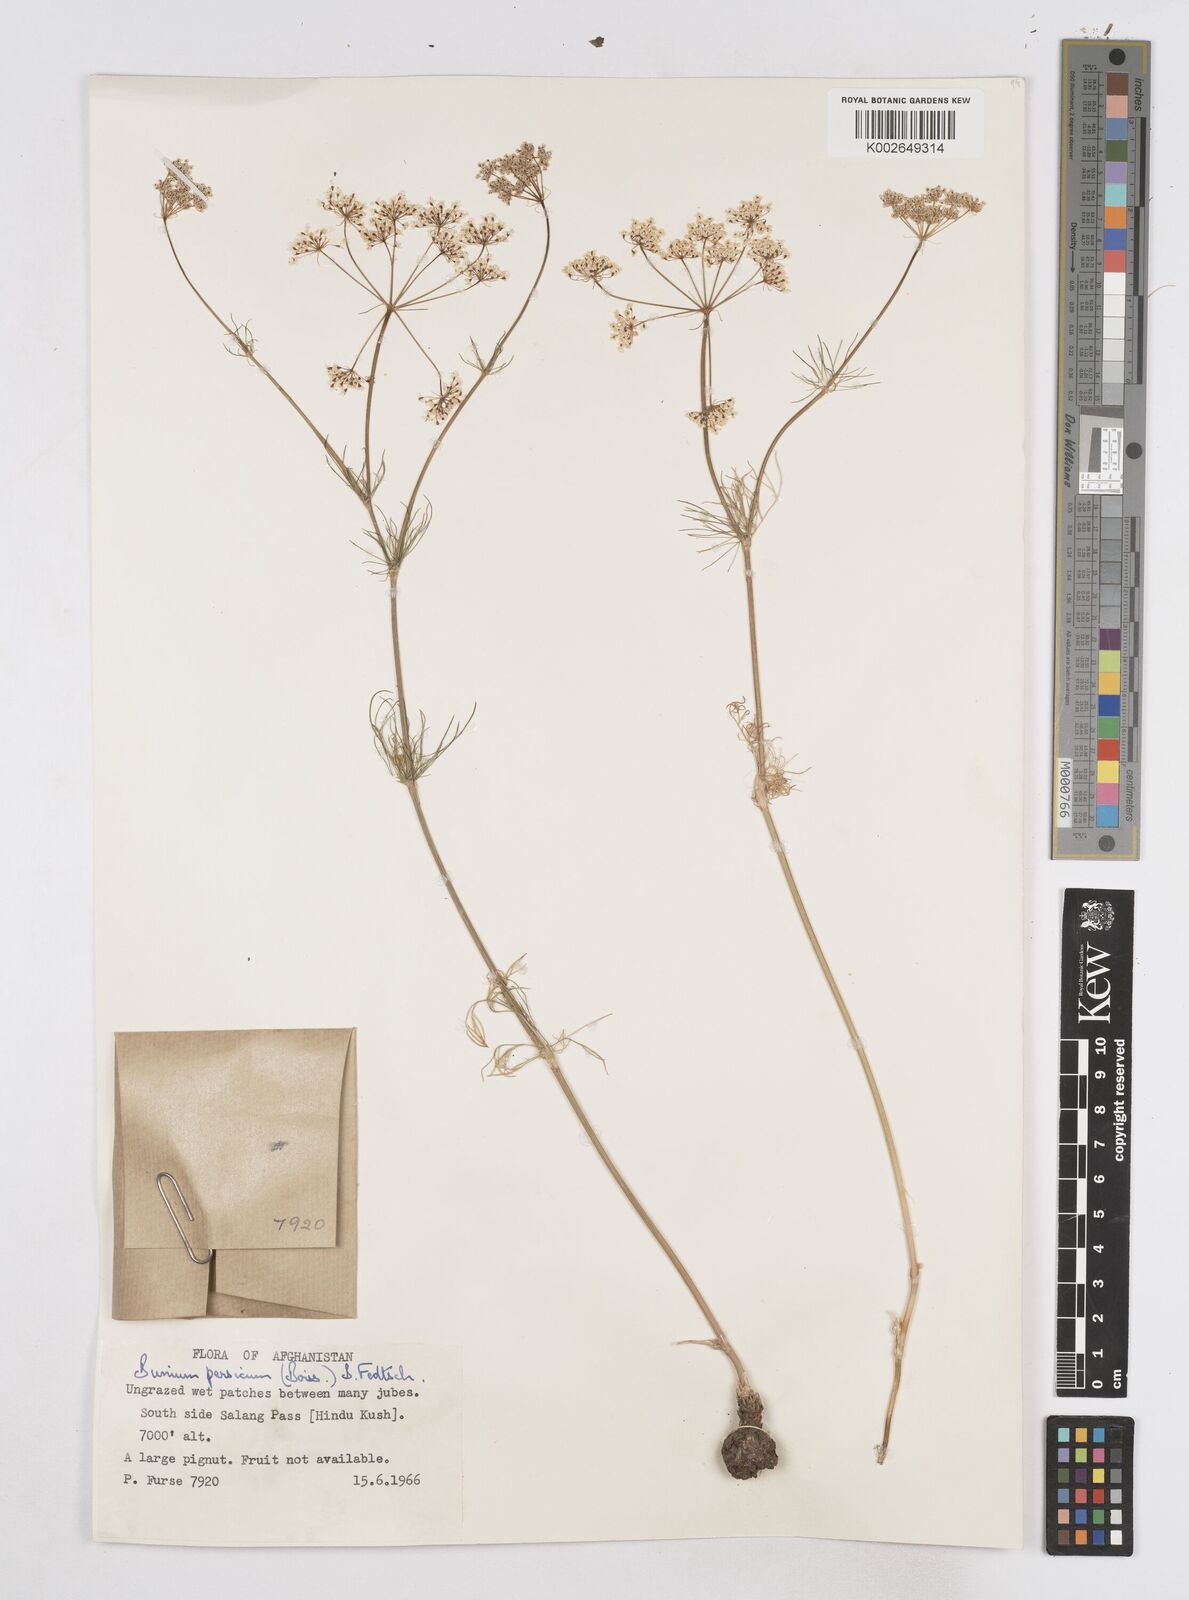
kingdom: Plantae
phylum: Tracheophyta
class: Magnoliopsida
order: Apiales
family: Apiaceae
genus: Elwendia
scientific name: Elwendia persica
